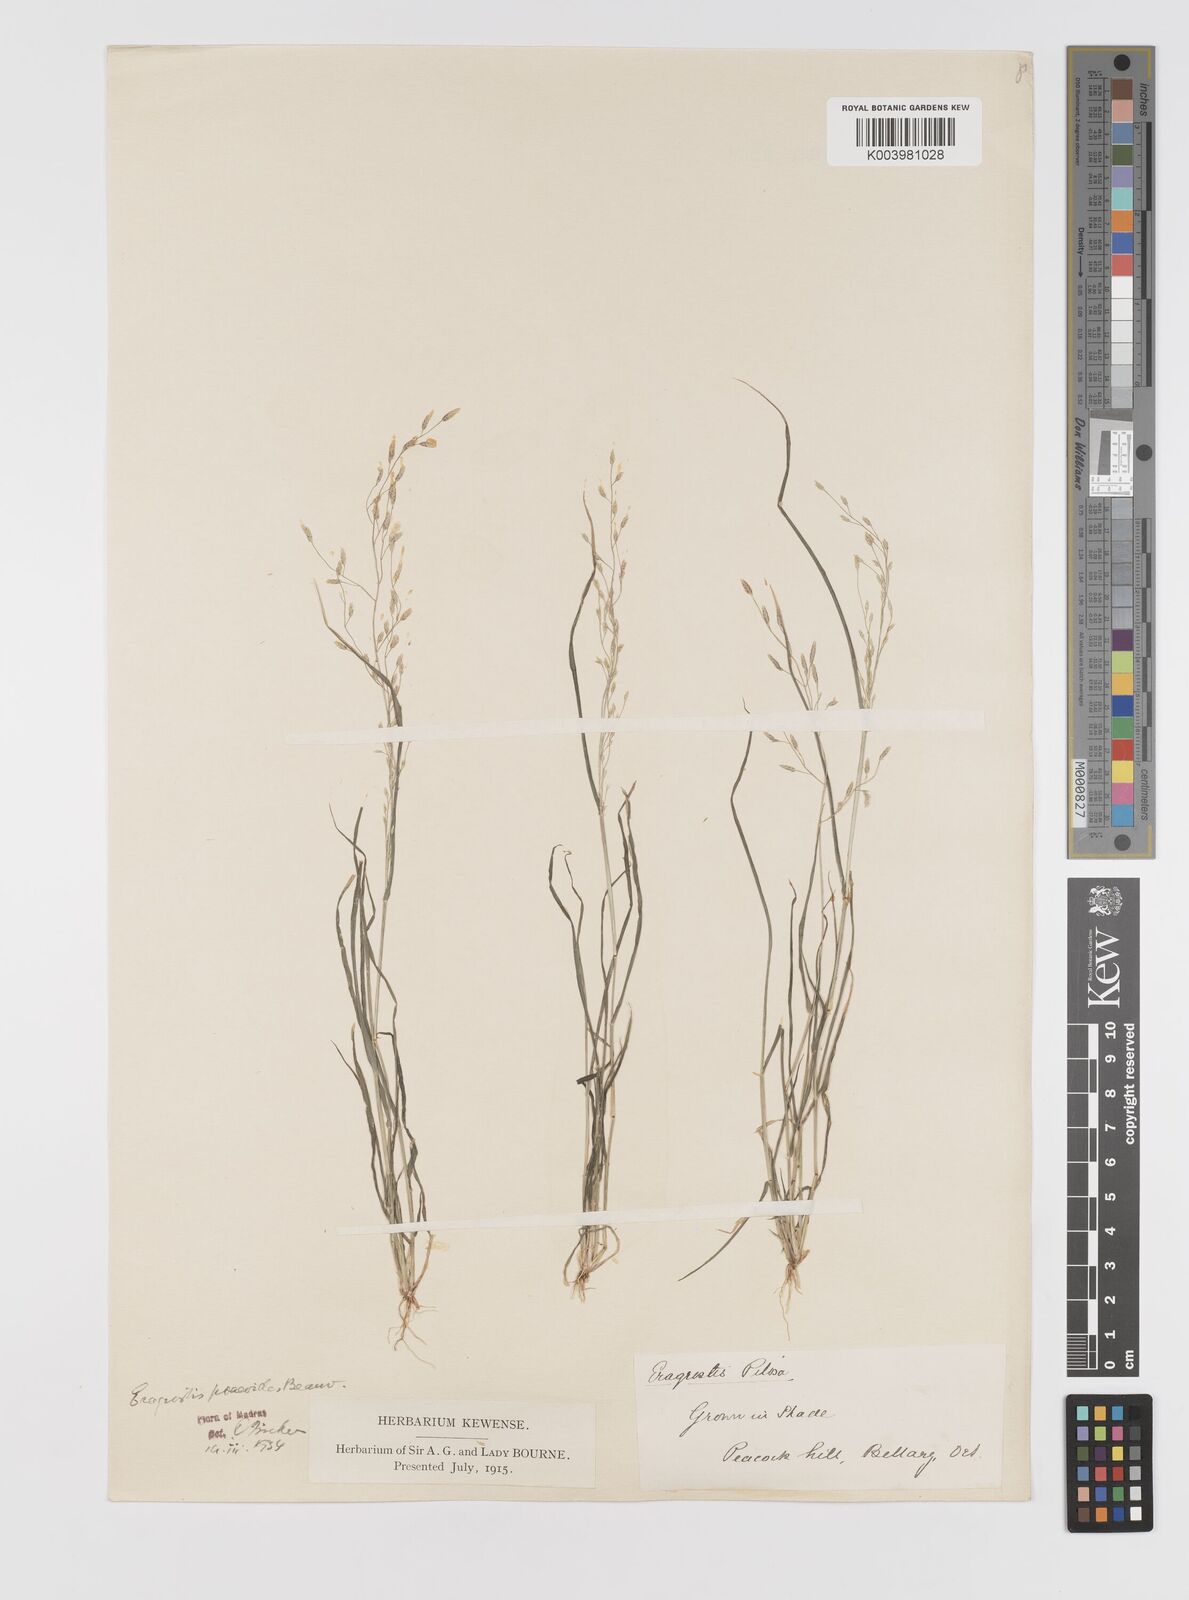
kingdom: Plantae
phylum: Tracheophyta
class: Liliopsida
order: Poales
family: Poaceae
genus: Eragrostis
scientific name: Eragrostis minor
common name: Small love-grass
